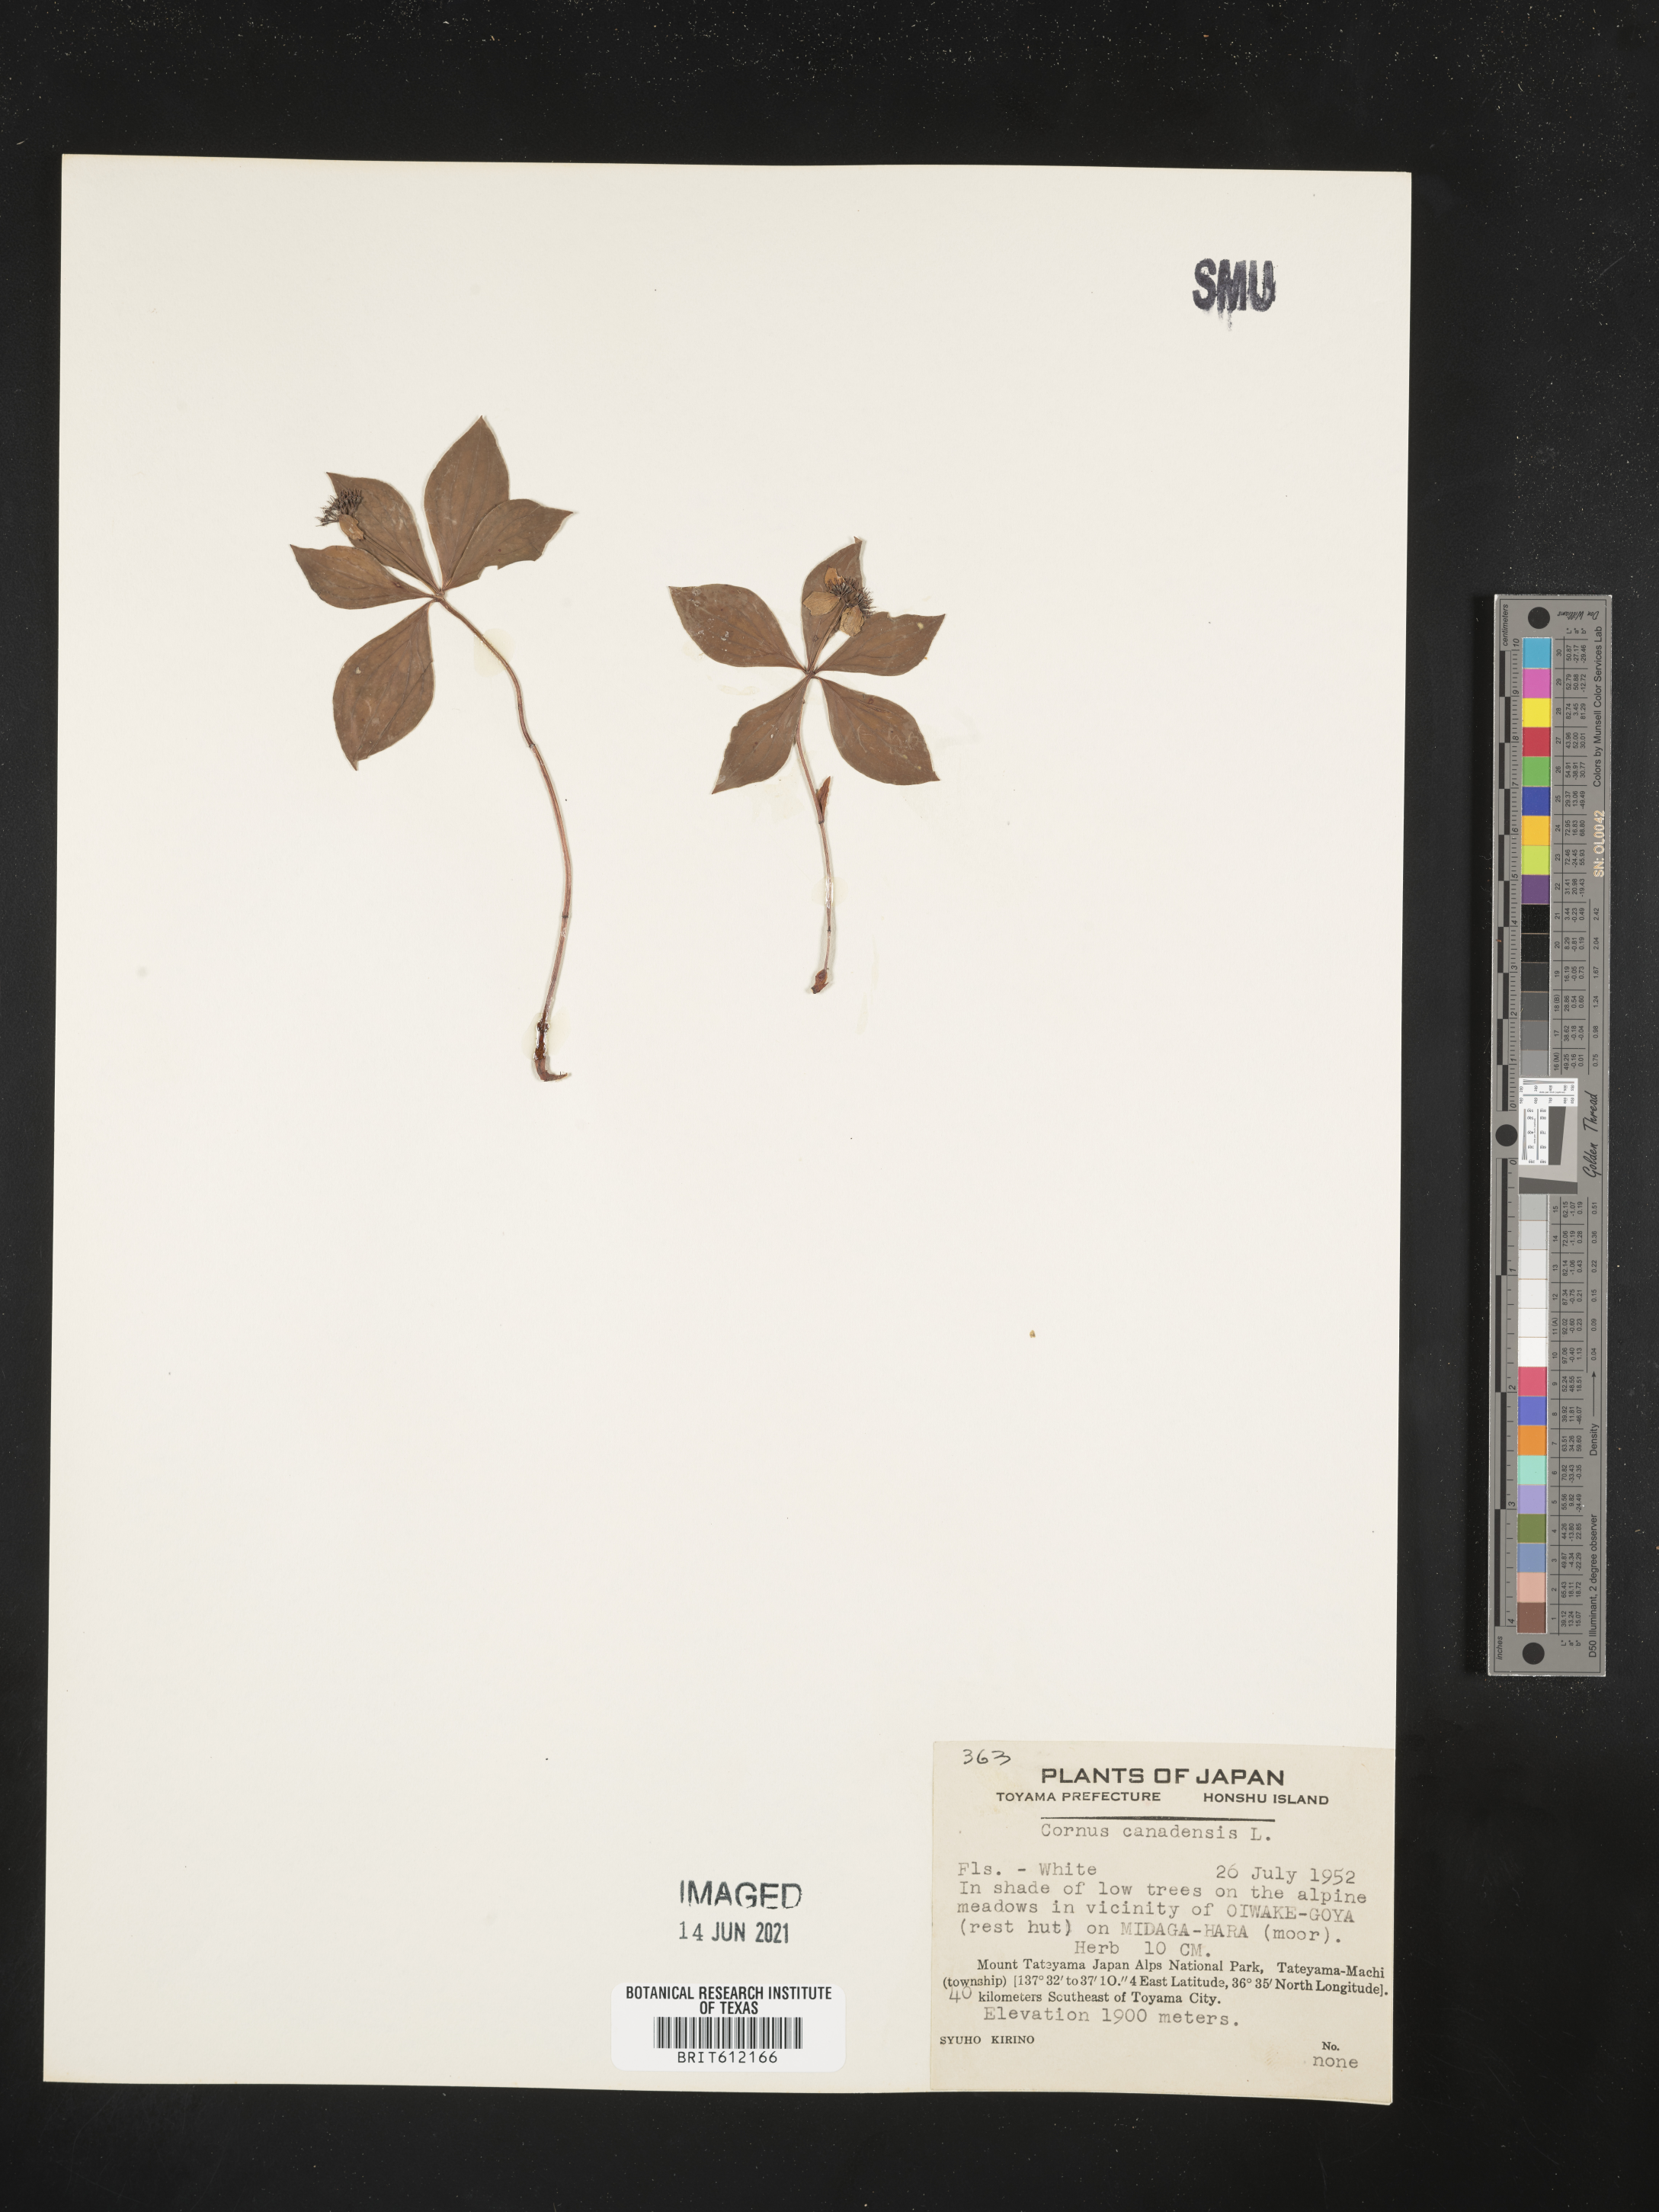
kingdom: Plantae
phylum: Tracheophyta
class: Magnoliopsida
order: Cornales
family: Cornaceae
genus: Cornus
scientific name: Cornus canadensis
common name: Creeping dogwood
